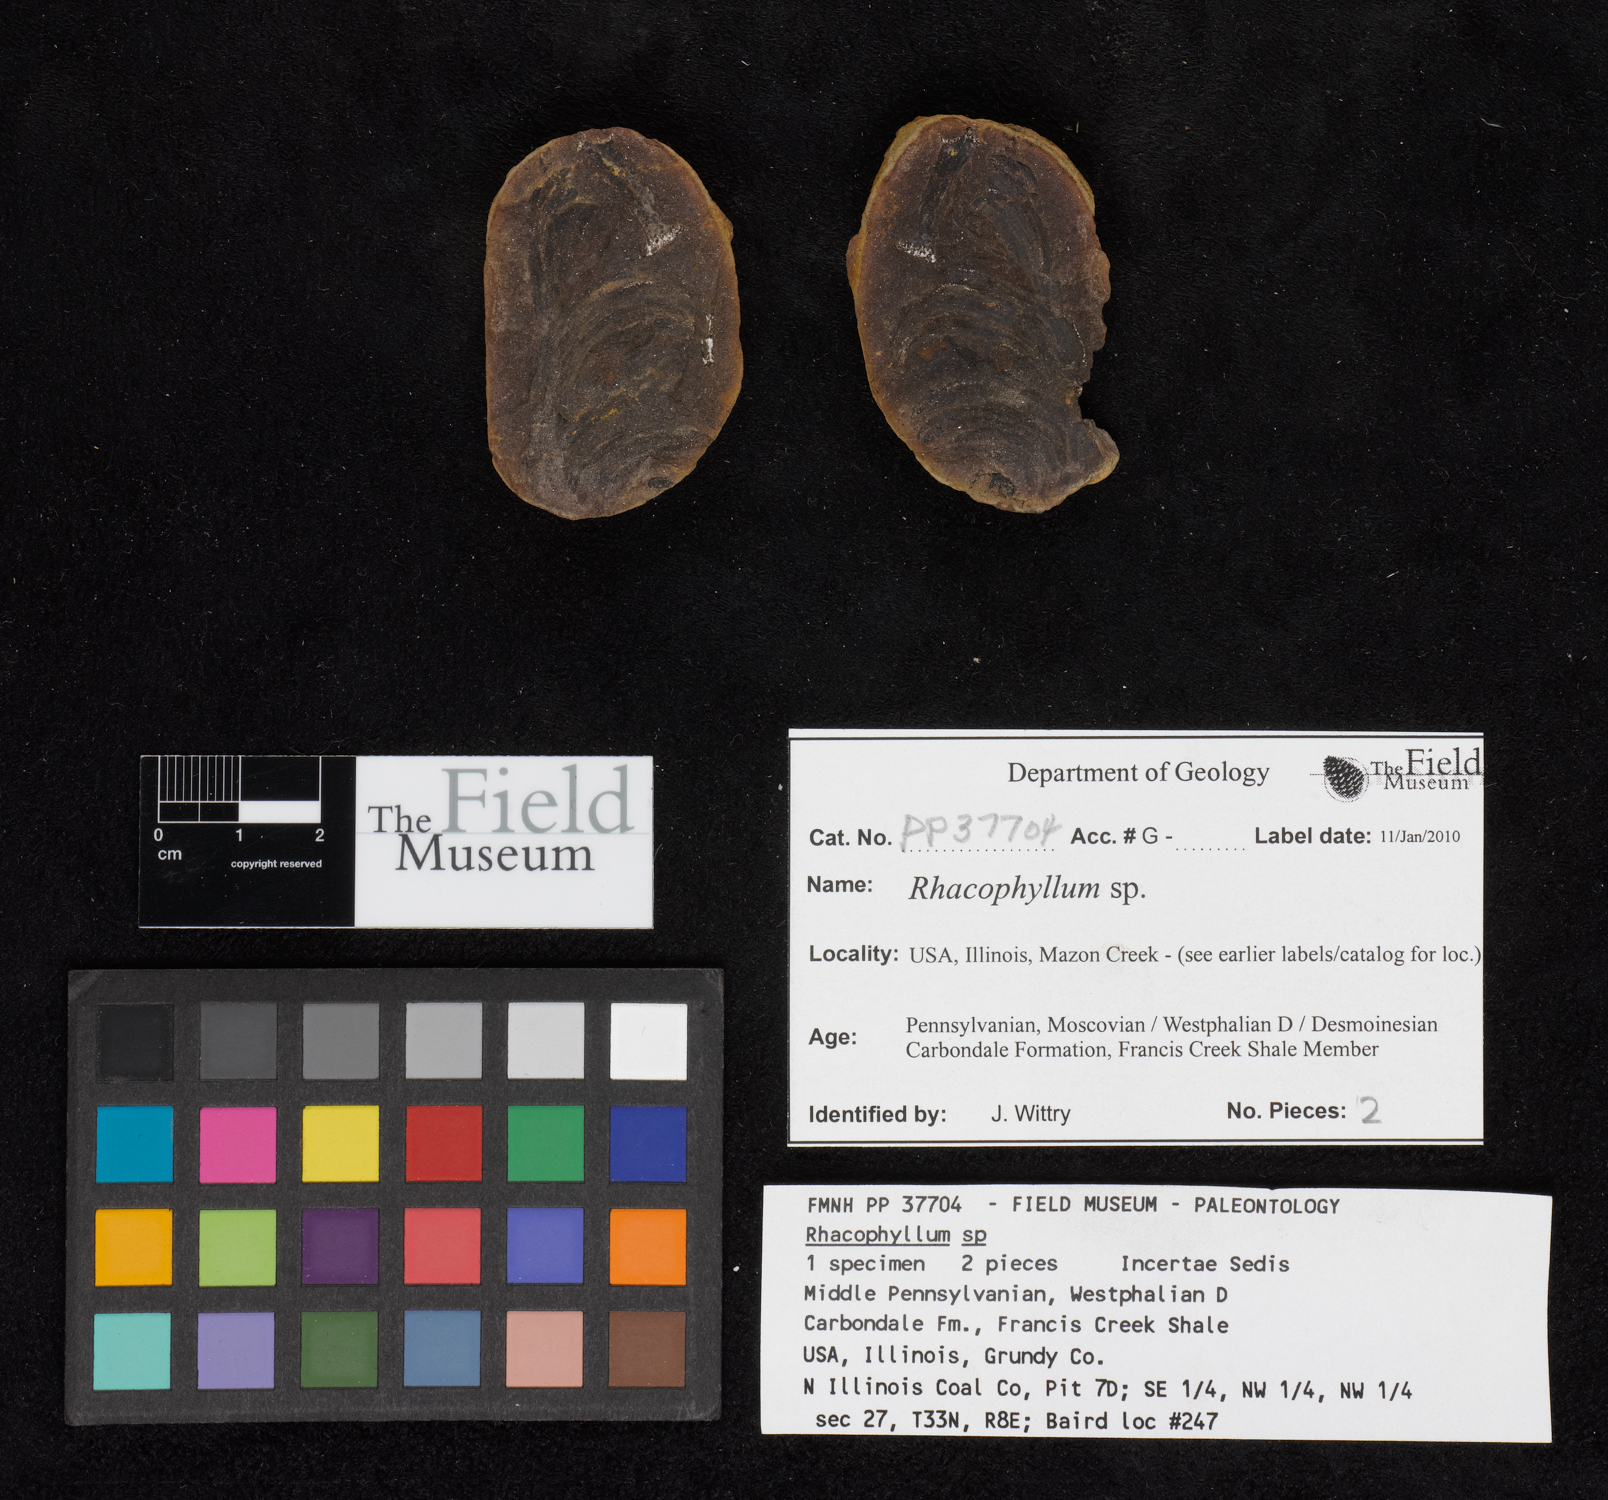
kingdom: Plantae
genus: Rhacophyllum
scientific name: Rhacophyllum
